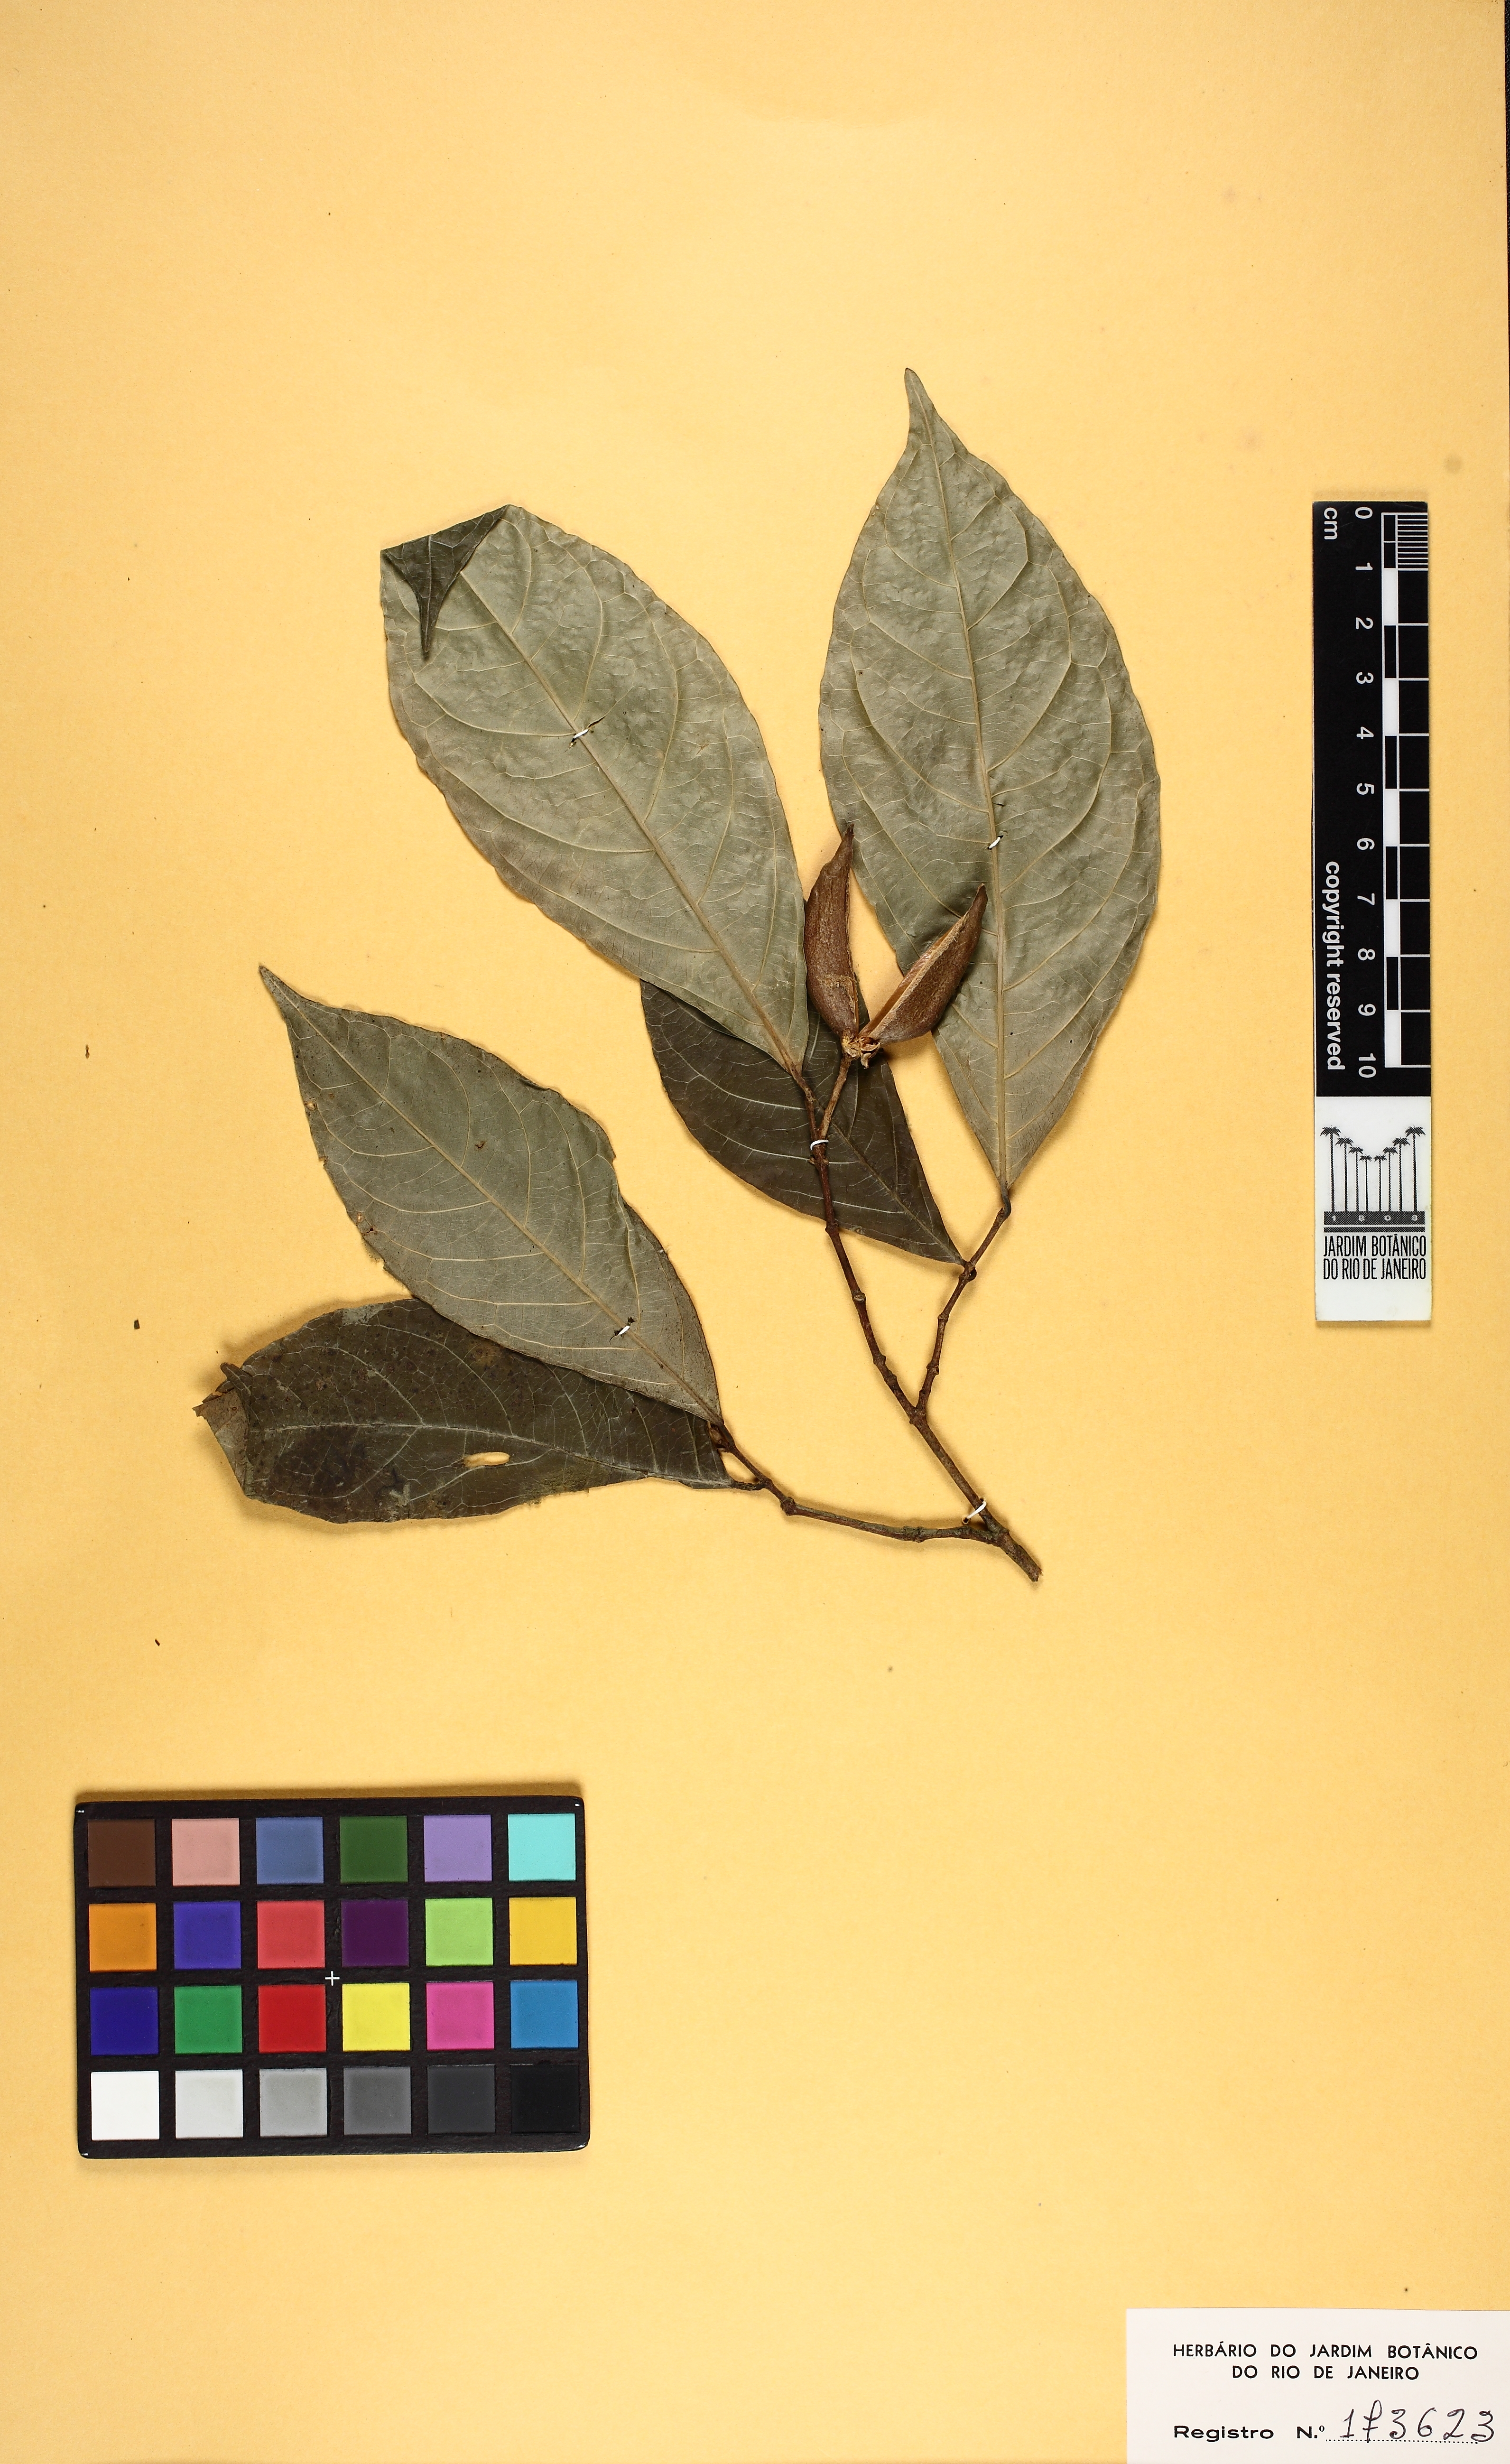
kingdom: Plantae
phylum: Tracheophyta
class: Magnoliopsida
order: Malpighiales
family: Violaceae
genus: Rinorea
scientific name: Rinorea macrocarpa
